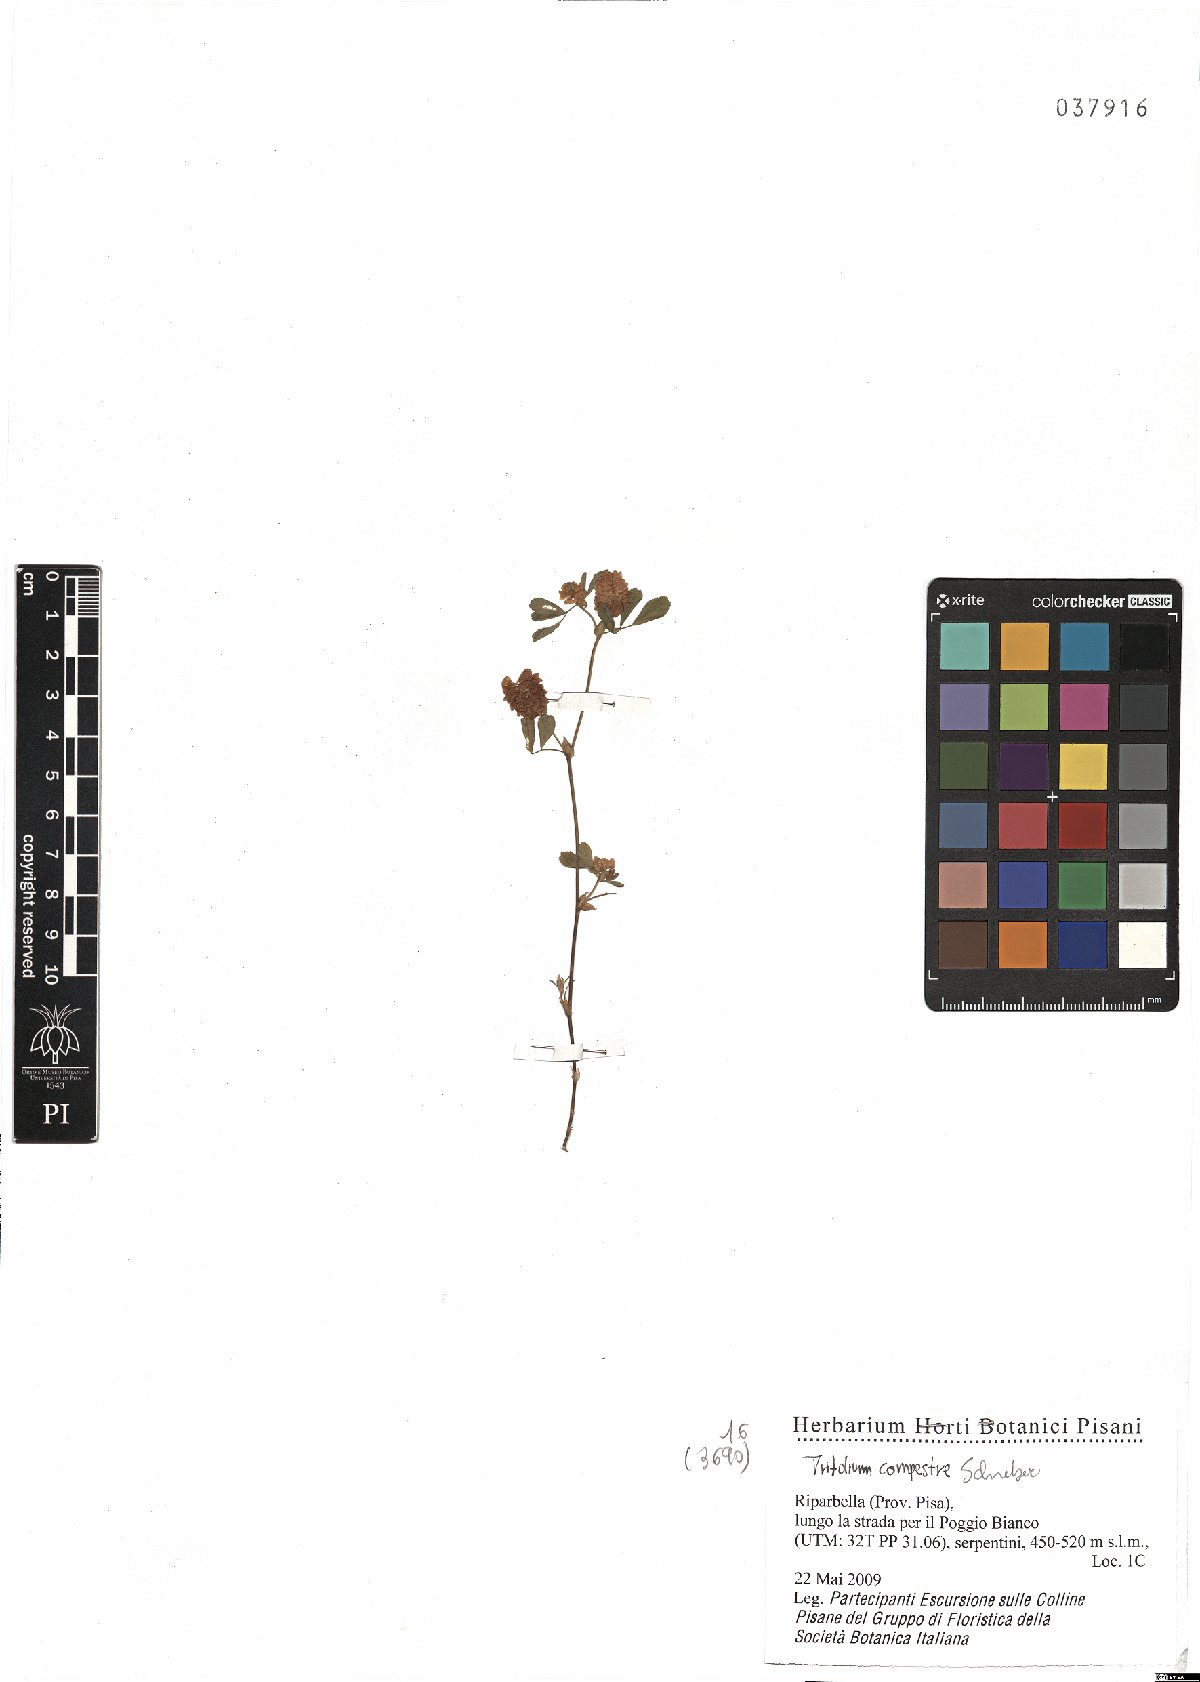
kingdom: Plantae
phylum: Tracheophyta
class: Magnoliopsida
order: Fabales
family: Fabaceae
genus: Trifolium
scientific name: Trifolium campestre
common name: Field clover
